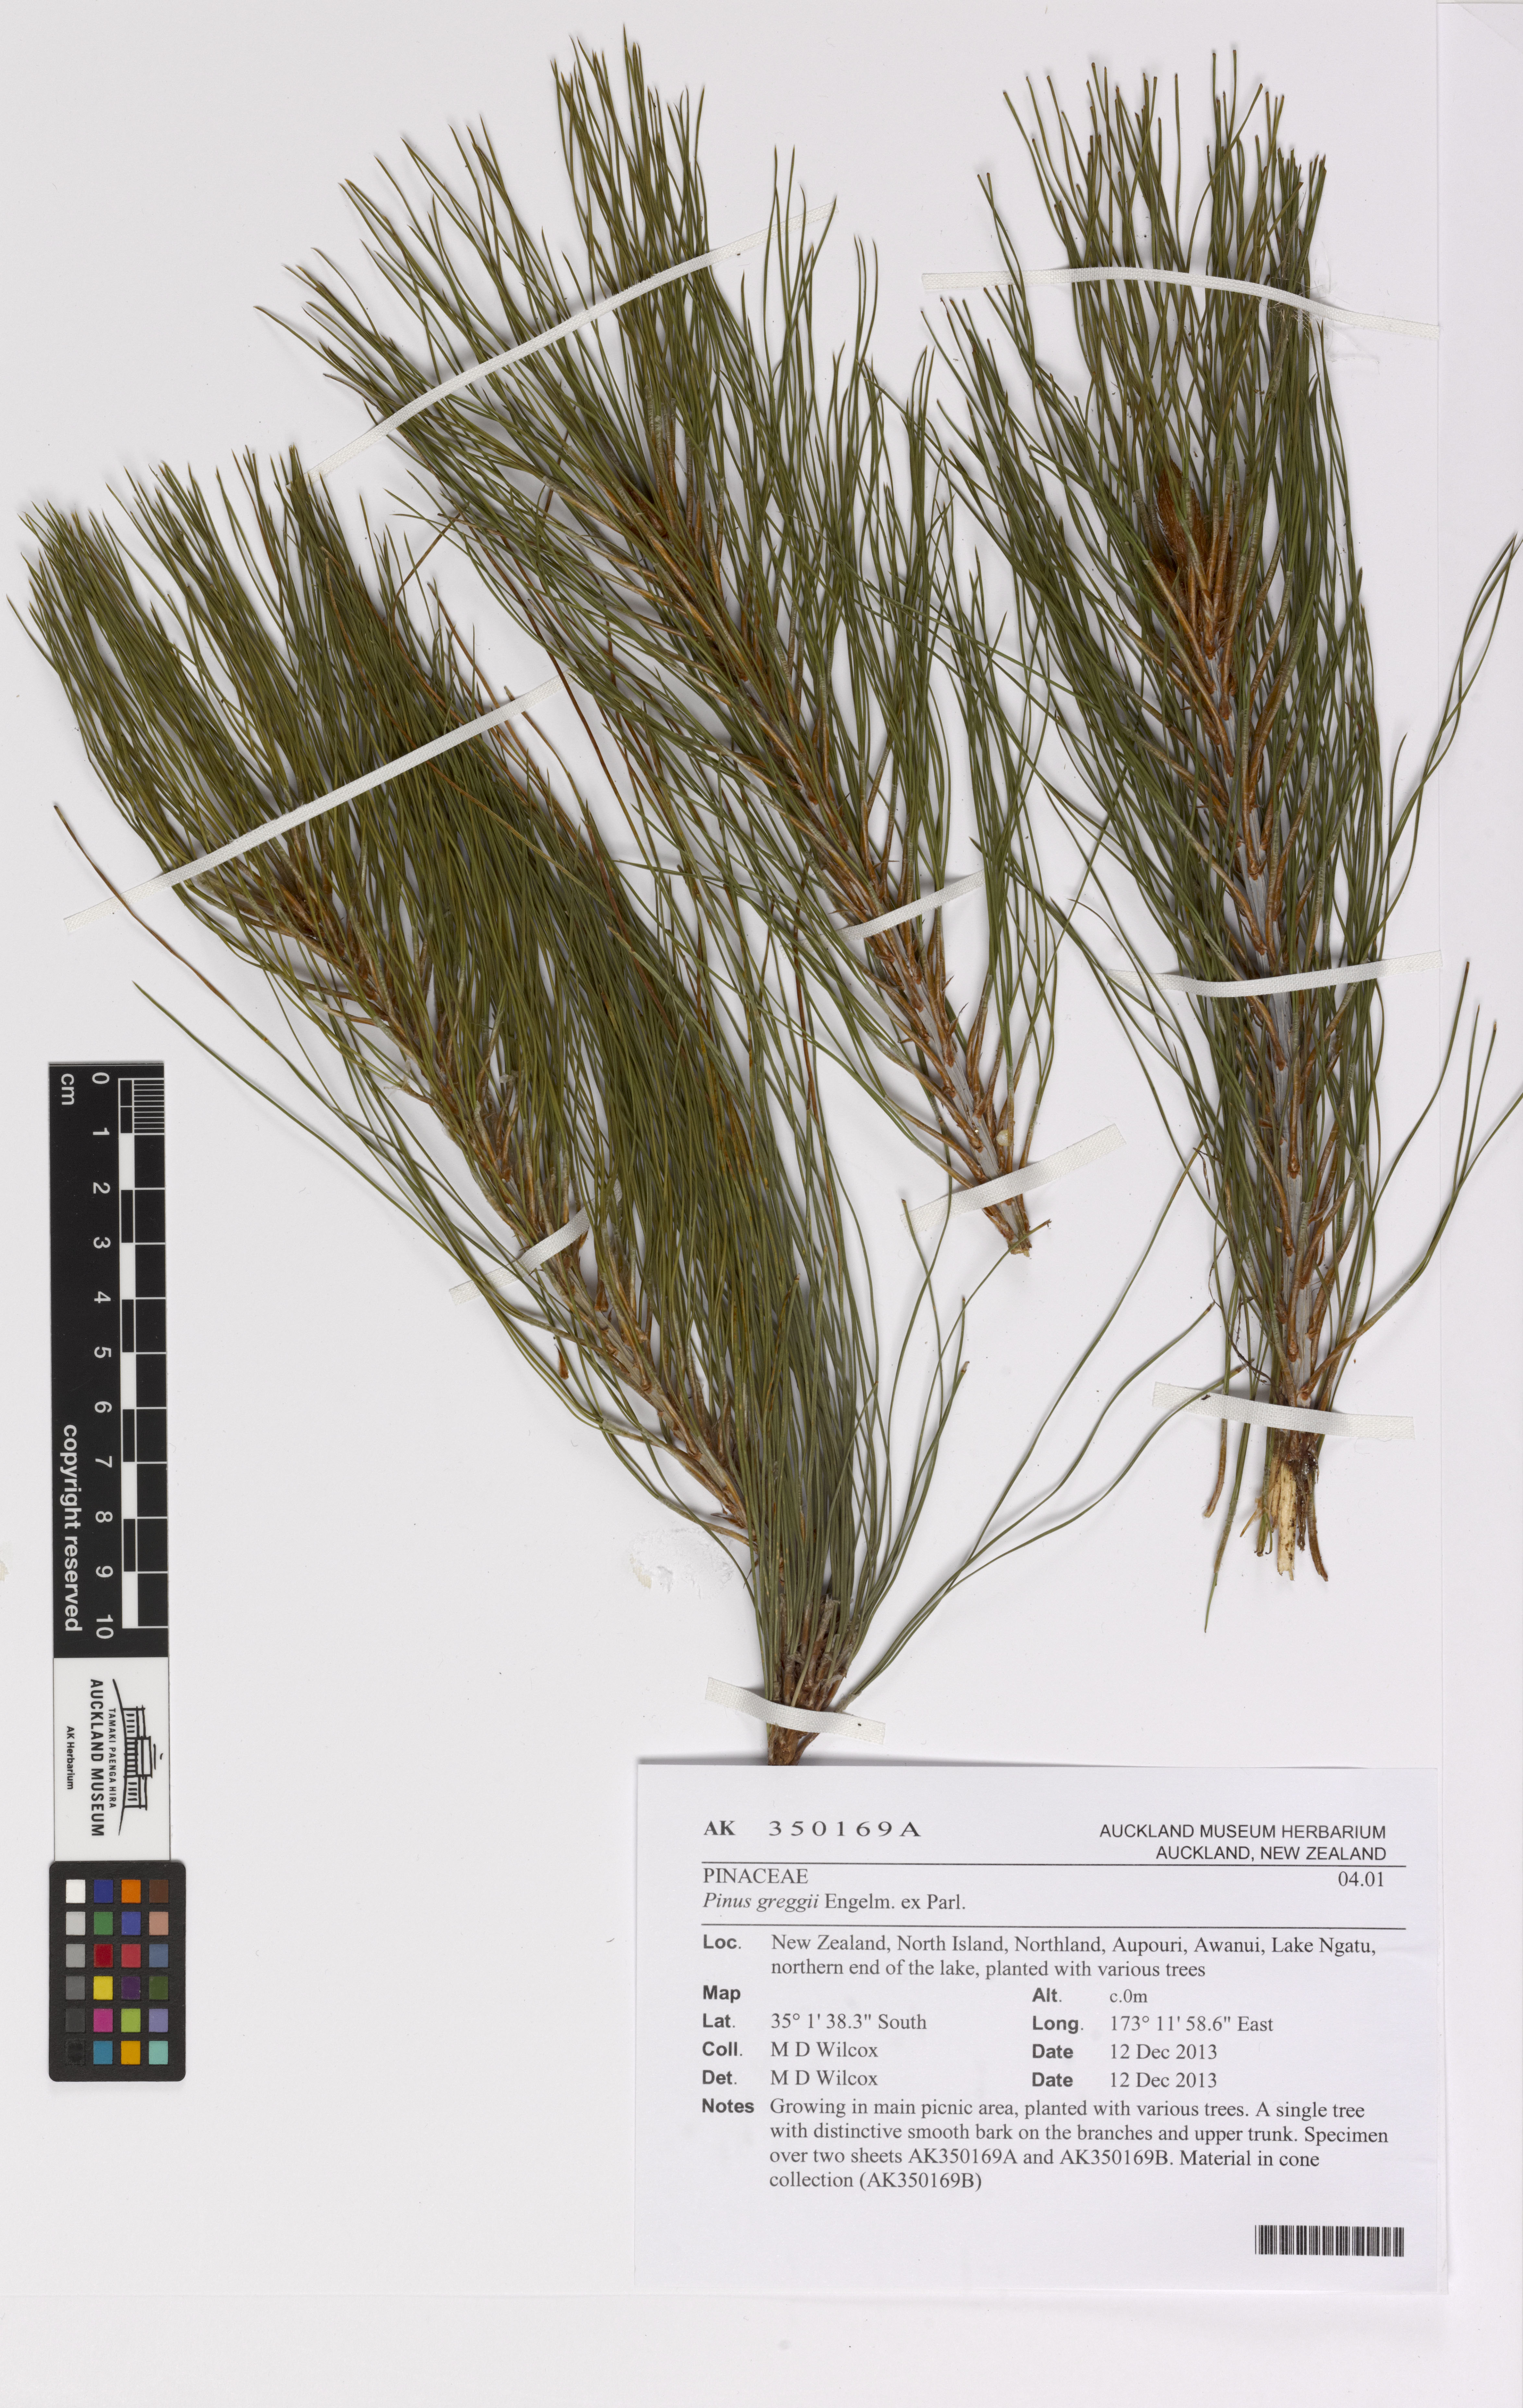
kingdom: Plantae
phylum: Tracheophyta
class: Pinopsida
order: Pinales
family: Pinaceae
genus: Pinus
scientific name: Pinus greggii
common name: Gregg’s pine
